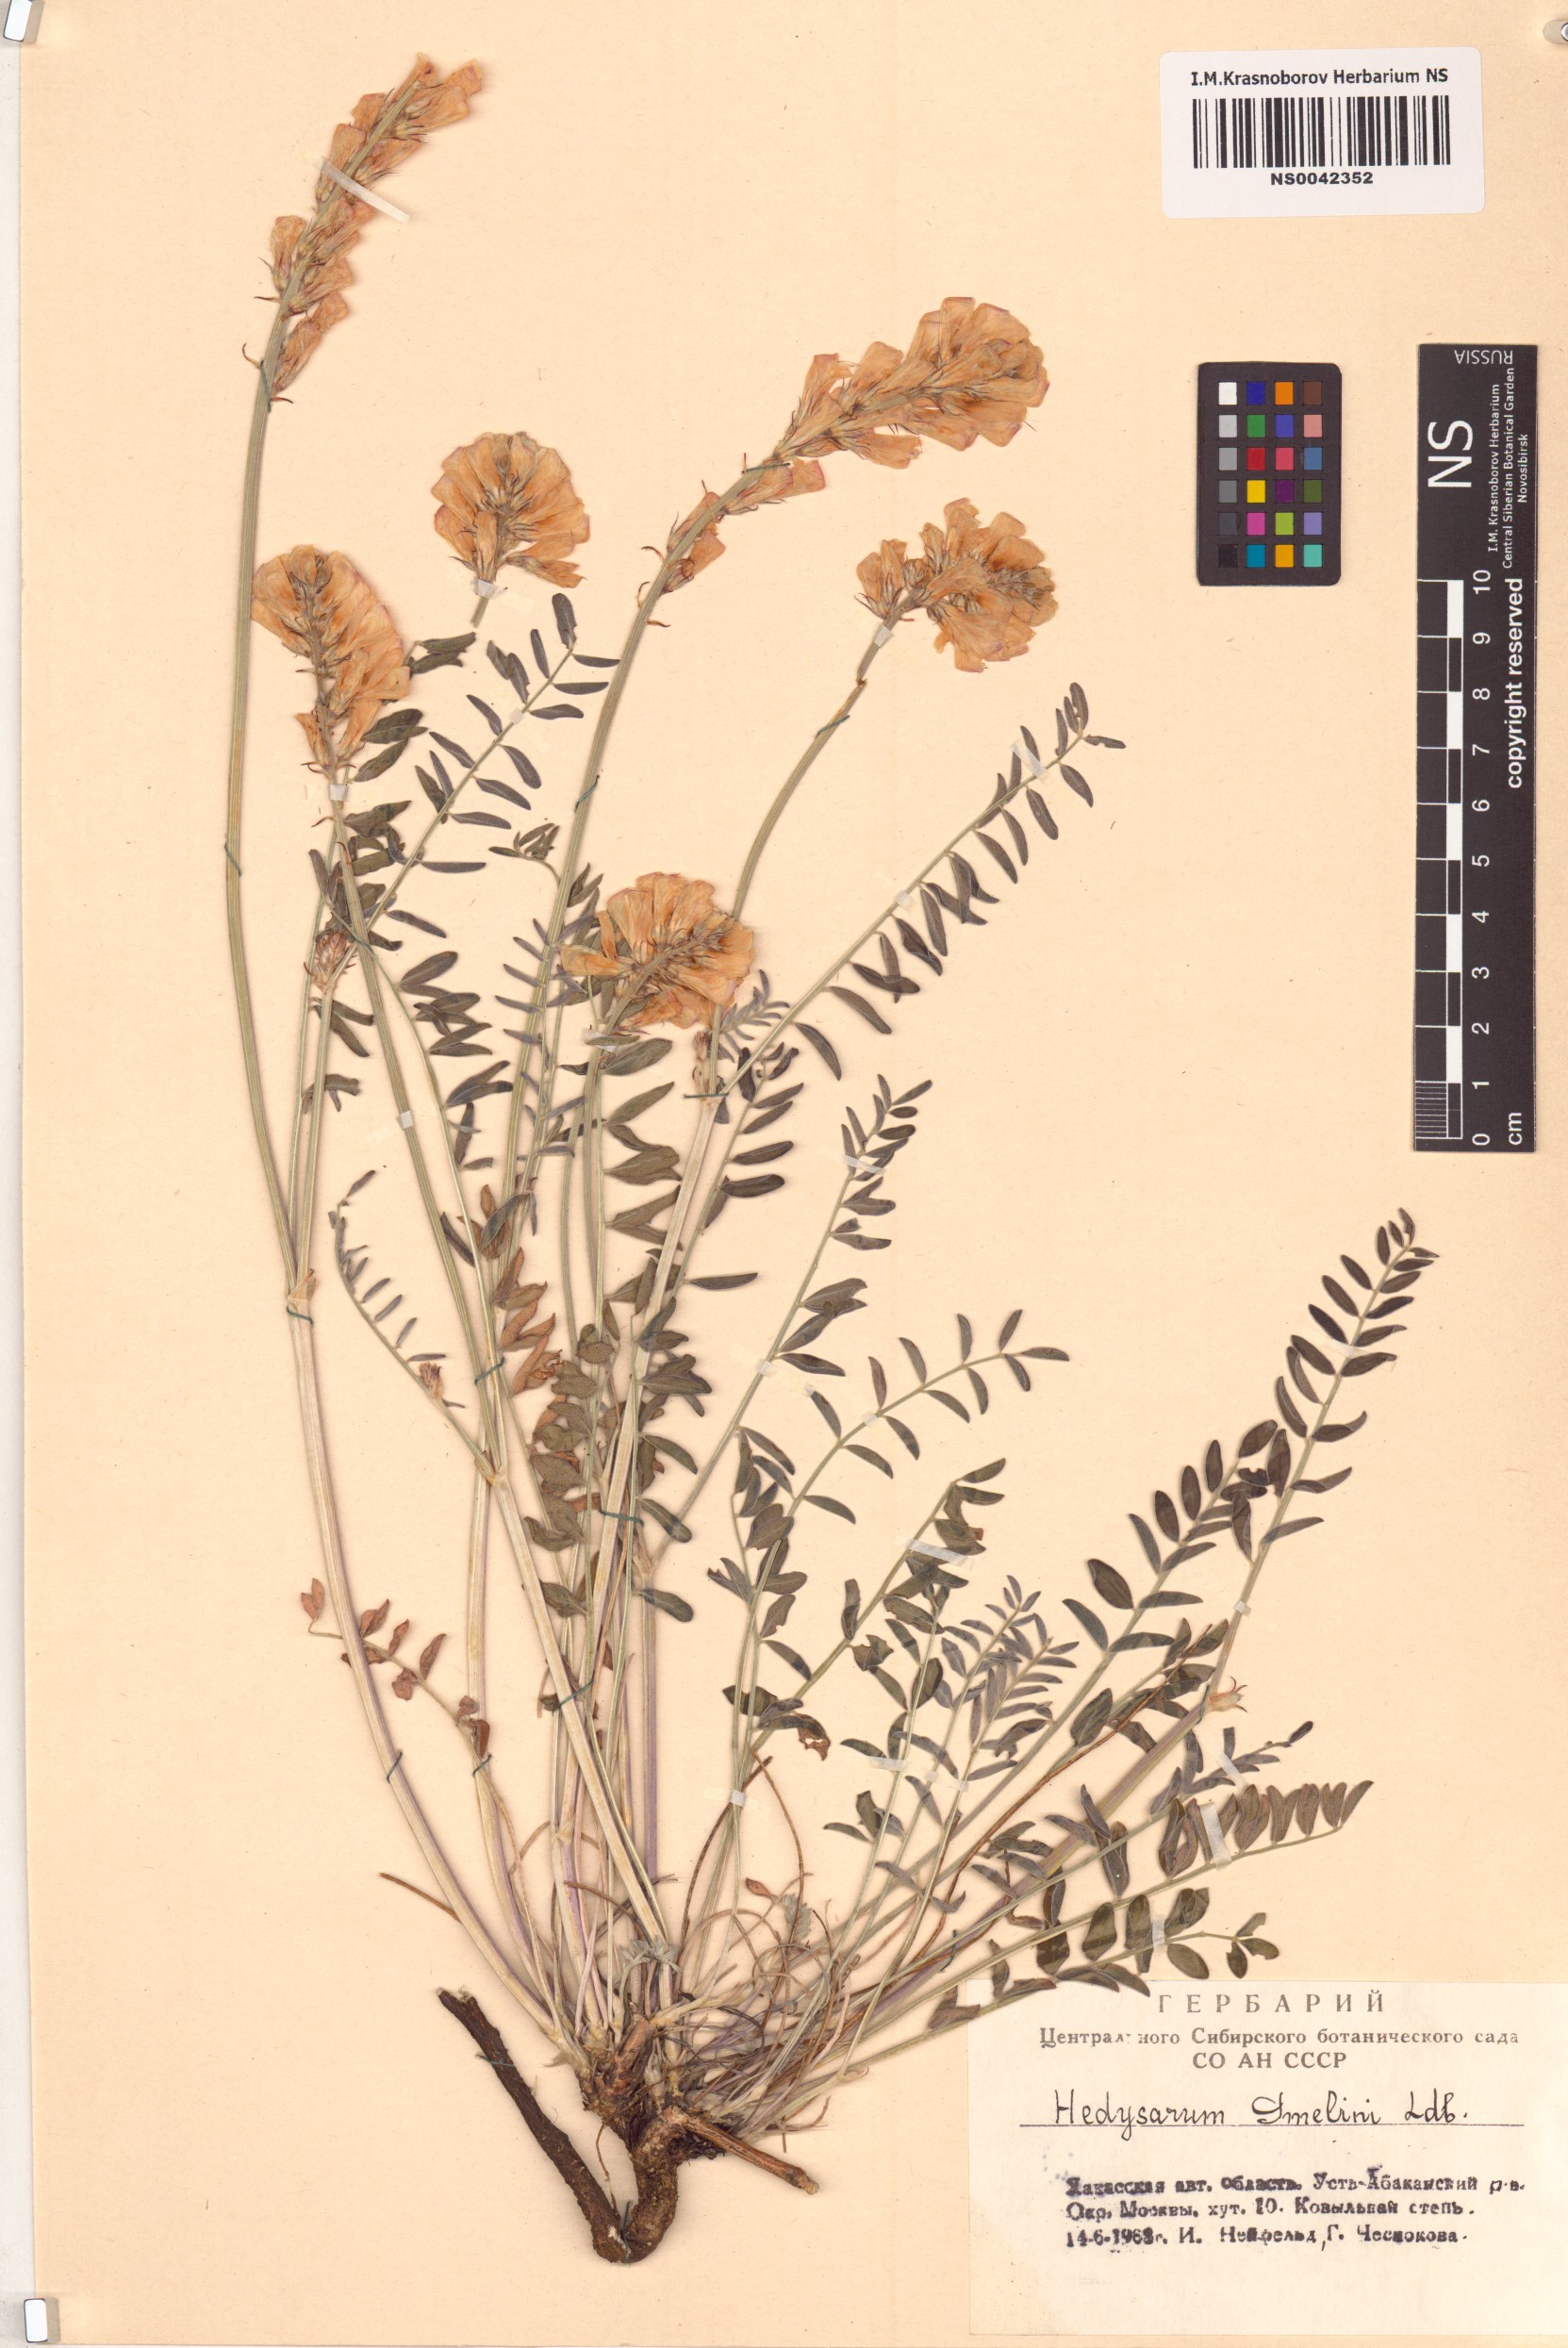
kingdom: Plantae
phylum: Tracheophyta
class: Magnoliopsida
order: Fabales
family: Fabaceae
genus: Hedysarum
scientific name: Hedysarum gmelinii
